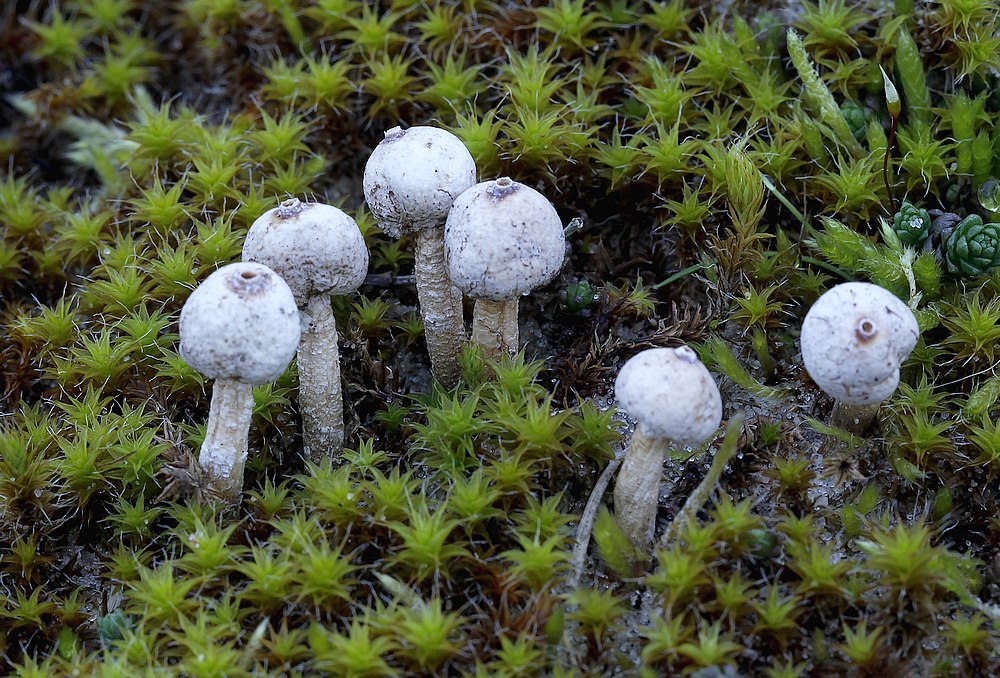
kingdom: Fungi
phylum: Basidiomycota
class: Agaricomycetes
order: Agaricales
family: Agaricaceae
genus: Tulostoma
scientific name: Tulostoma brumale
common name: vinter-stilkbovist
